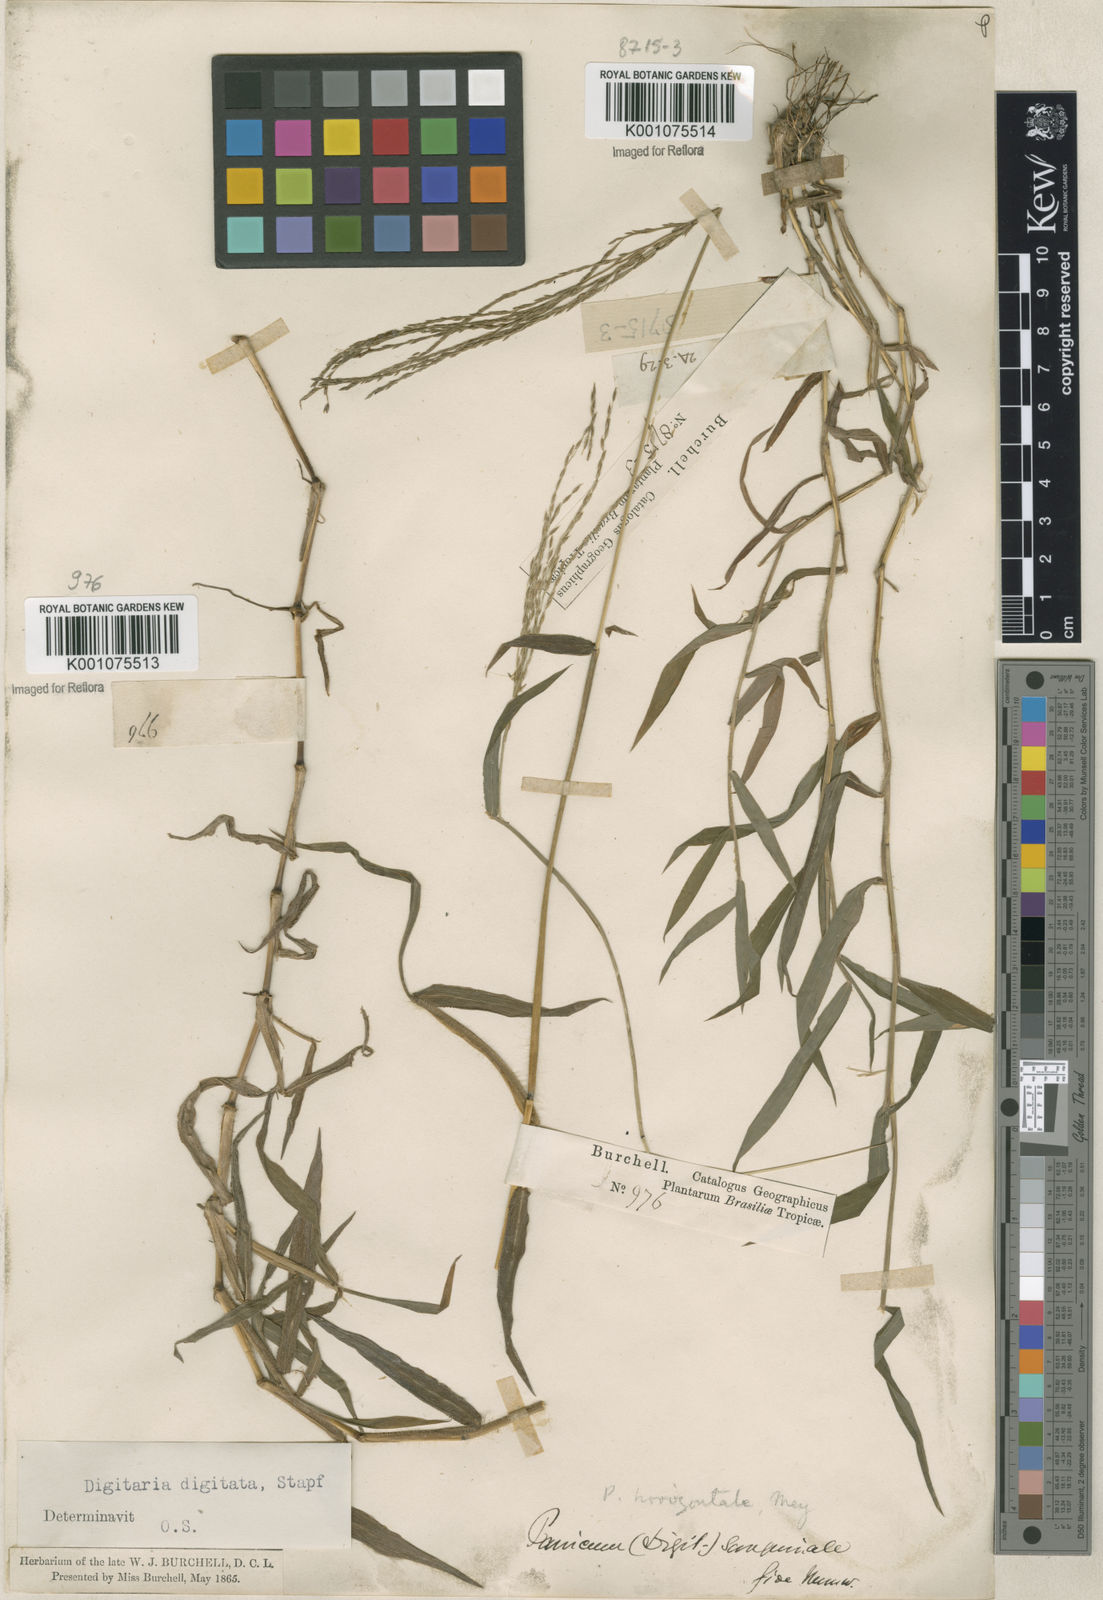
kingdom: Plantae
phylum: Tracheophyta
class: Liliopsida
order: Poales
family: Poaceae
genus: Digitaria
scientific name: Digitaria horizontalis
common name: Jamaican crabgrass
